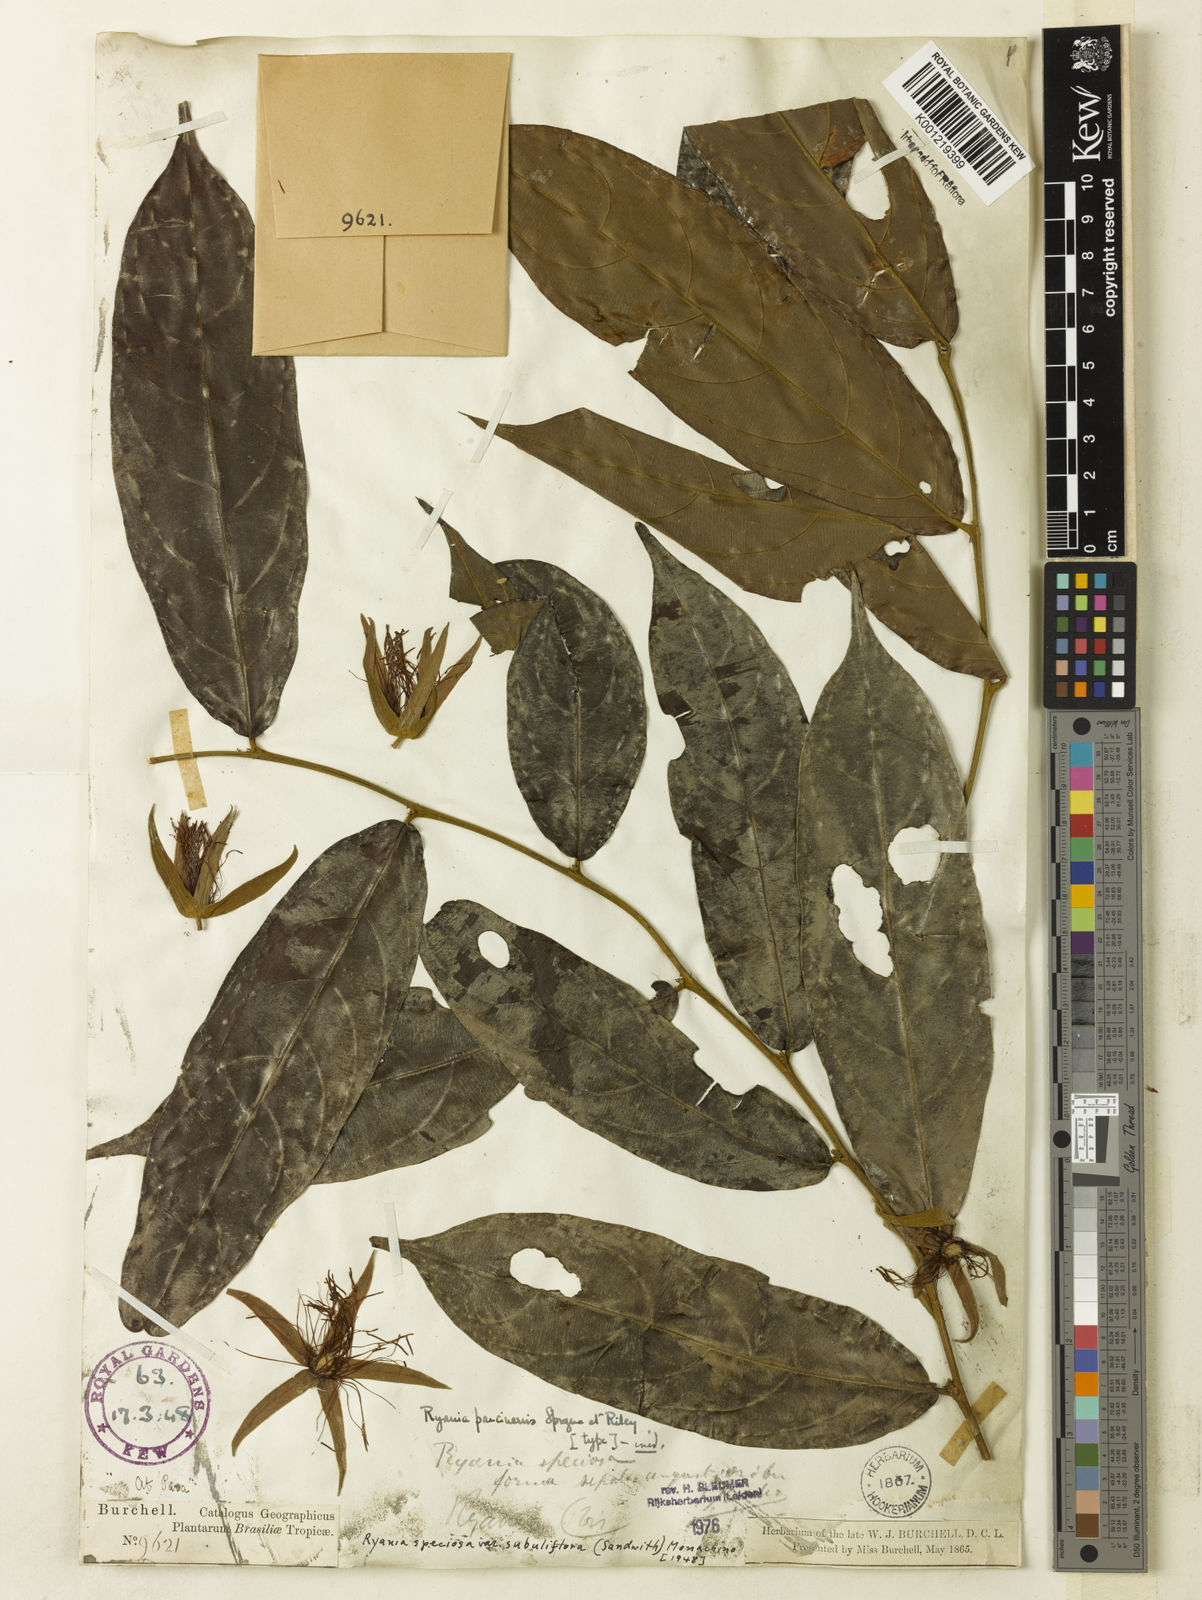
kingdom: Plantae
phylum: Tracheophyta
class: Magnoliopsida
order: Malpighiales
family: Salicaceae
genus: Ryania
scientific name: Ryania speciosa
